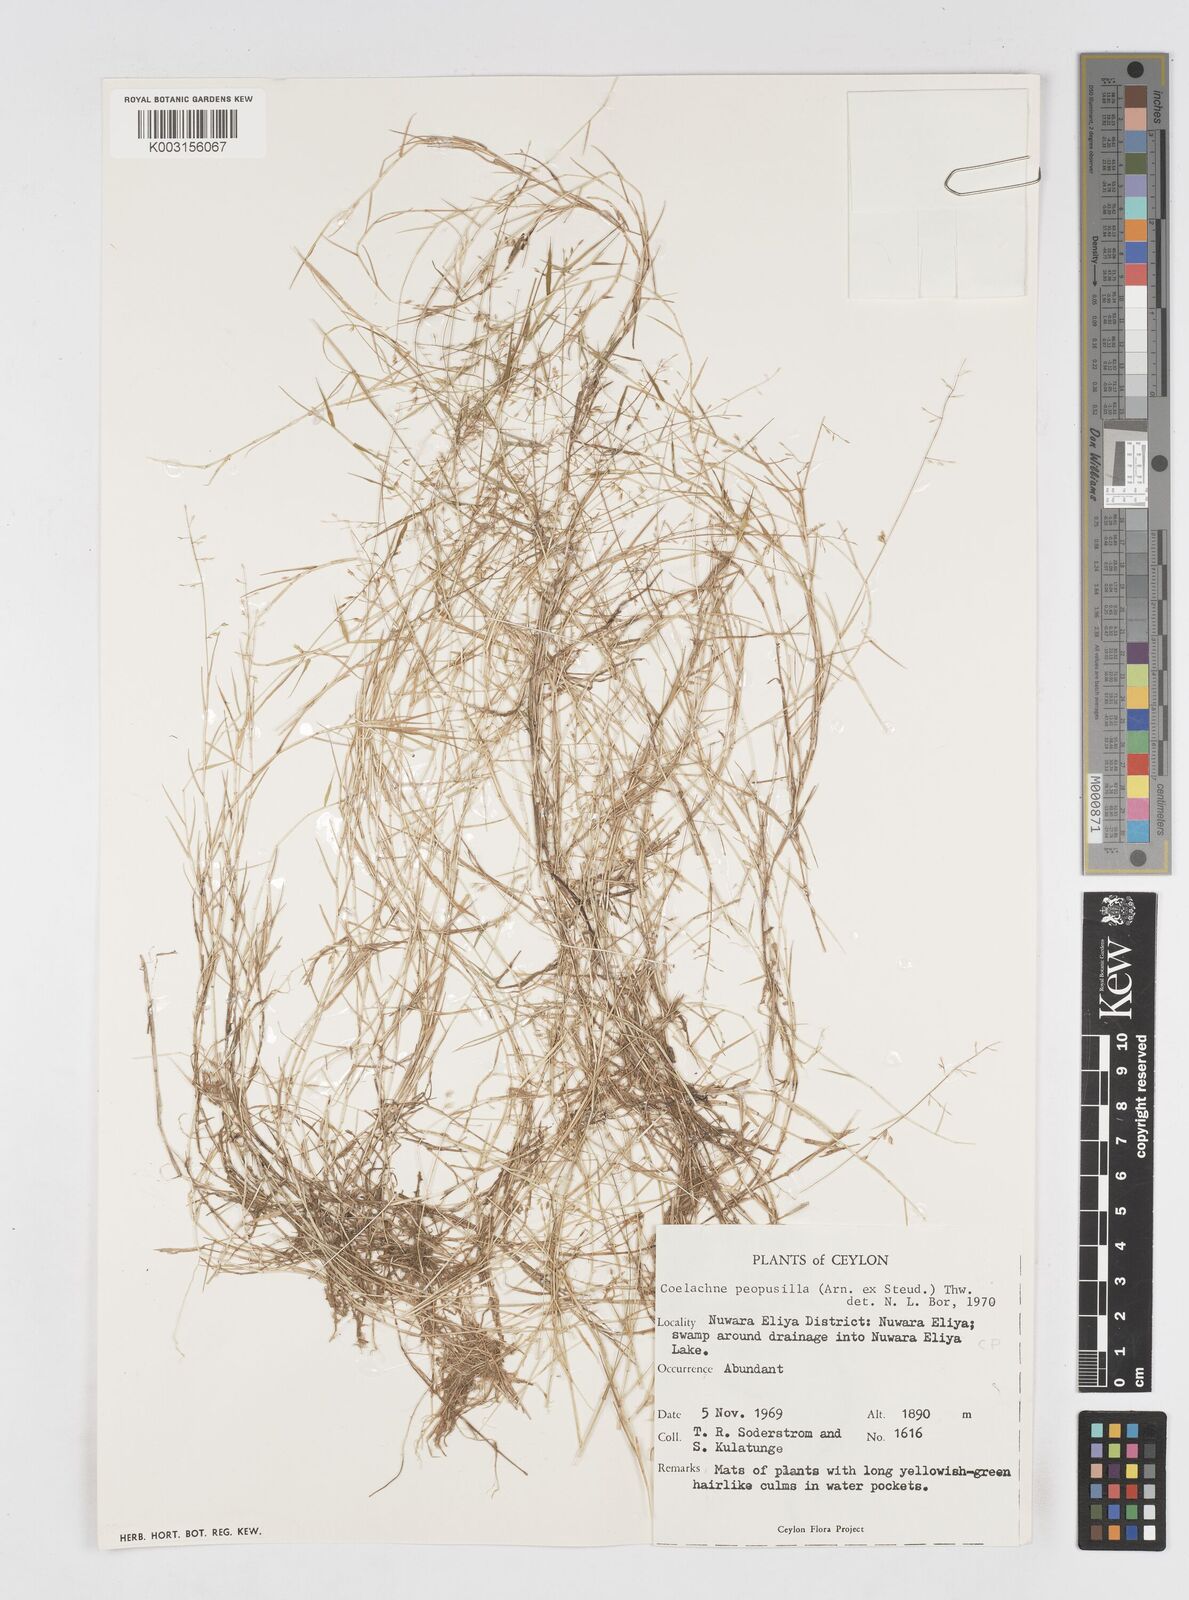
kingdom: Plantae
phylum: Tracheophyta
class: Liliopsida
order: Poales
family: Poaceae
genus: Coelachne
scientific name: Coelachne perpusilla
